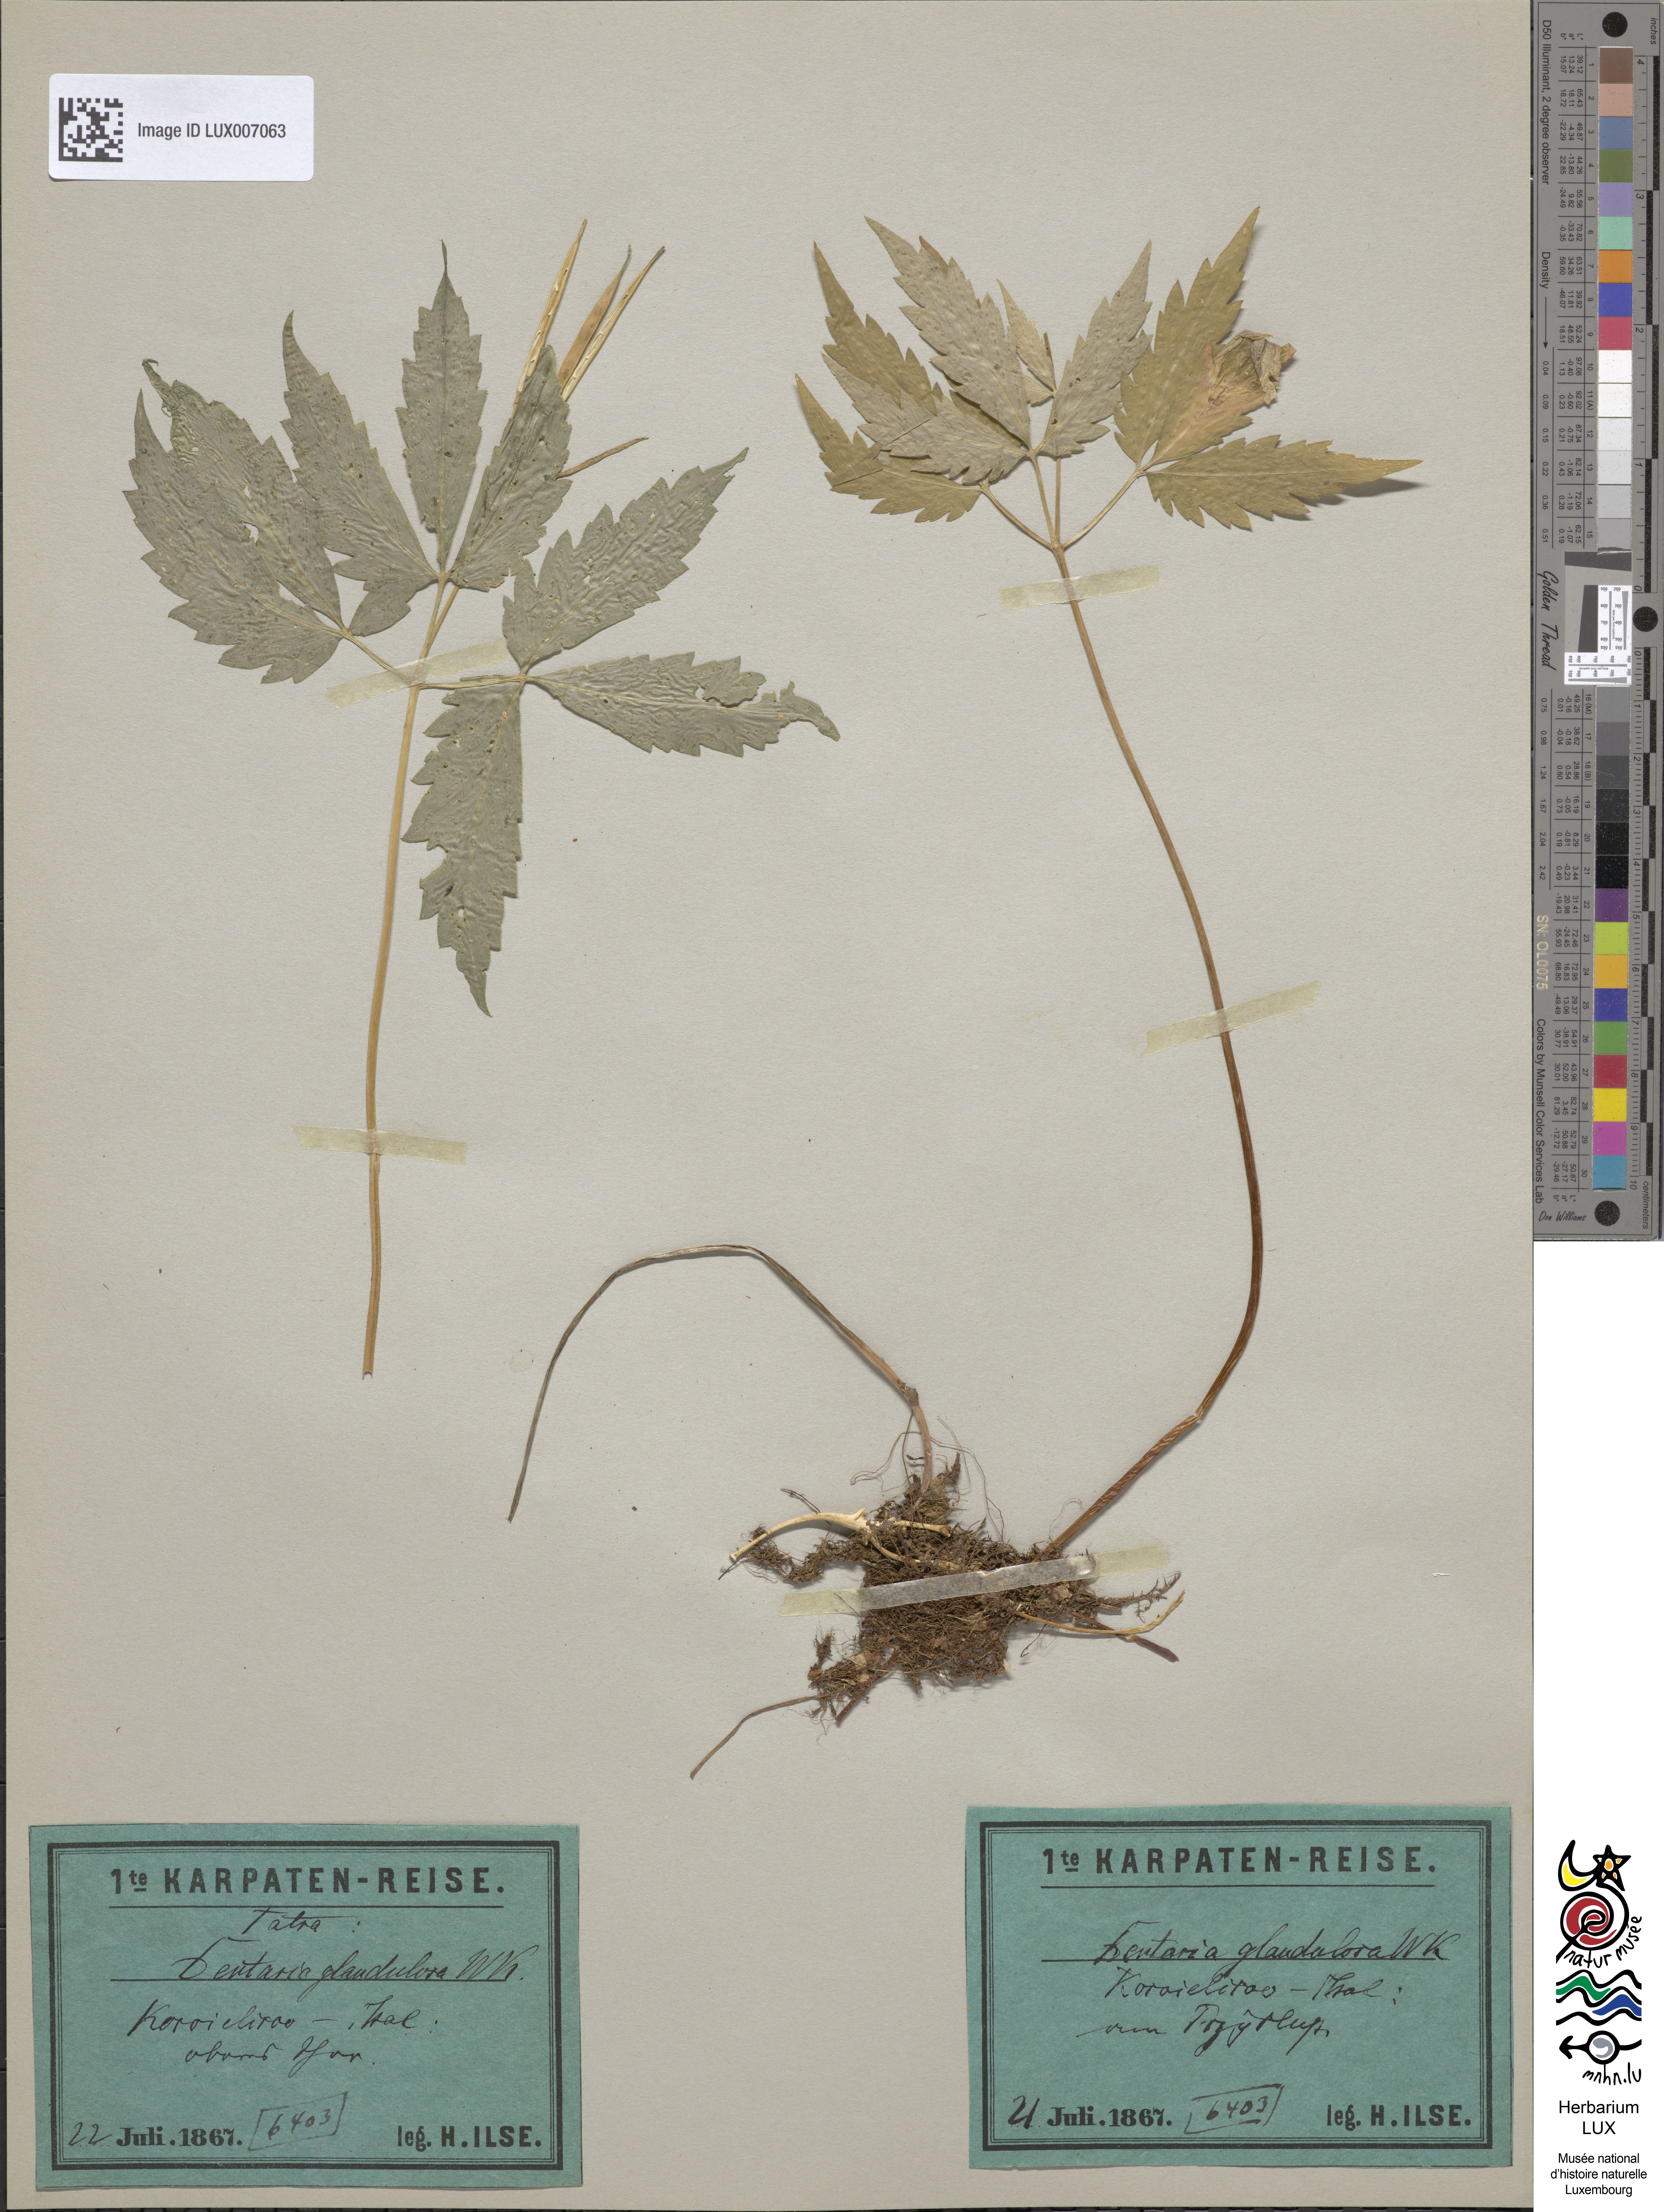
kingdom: Plantae
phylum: Tracheophyta
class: Magnoliopsida
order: Brassicales
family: Brassicaceae
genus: Cardamine
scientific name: Cardamine glanduligera
